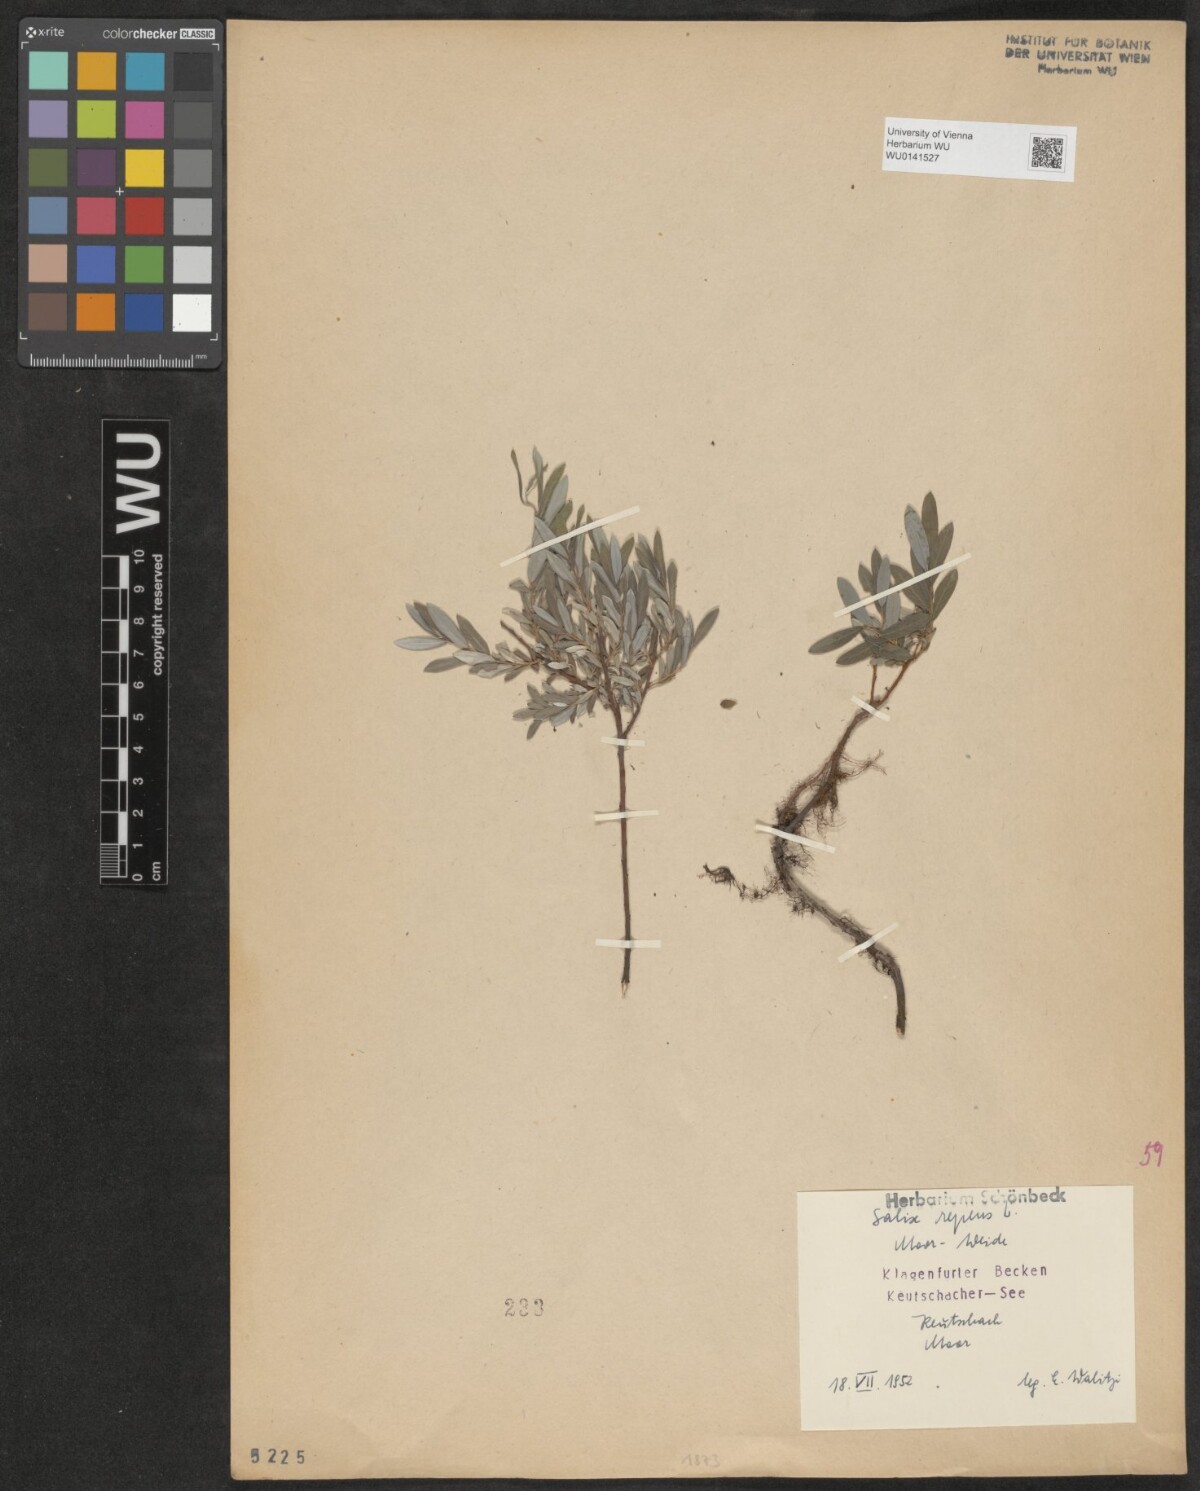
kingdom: Plantae
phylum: Tracheophyta
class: Magnoliopsida
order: Malpighiales
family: Salicaceae
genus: Salix
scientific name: Salix repens
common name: Creeping willow
